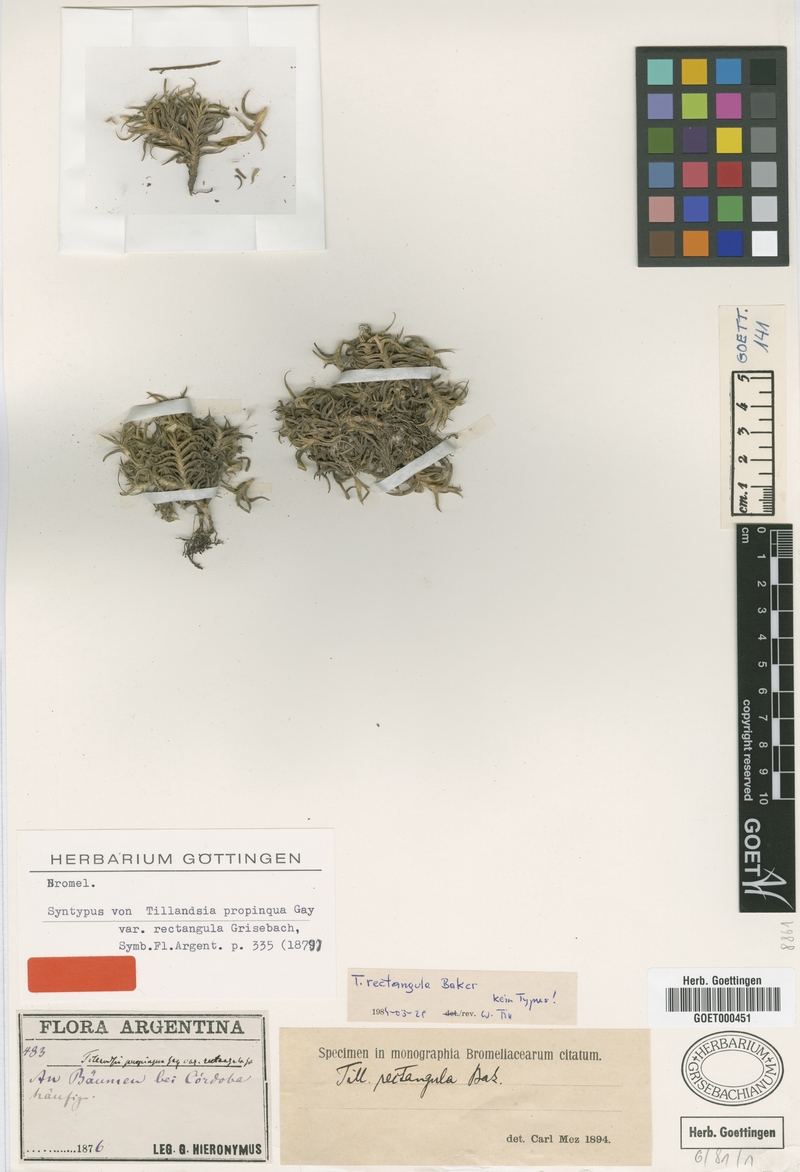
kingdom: Plantae
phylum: Tracheophyta
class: Liliopsida
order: Poales
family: Bromeliaceae
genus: Tillandsia
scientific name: Tillandsia rectangula
